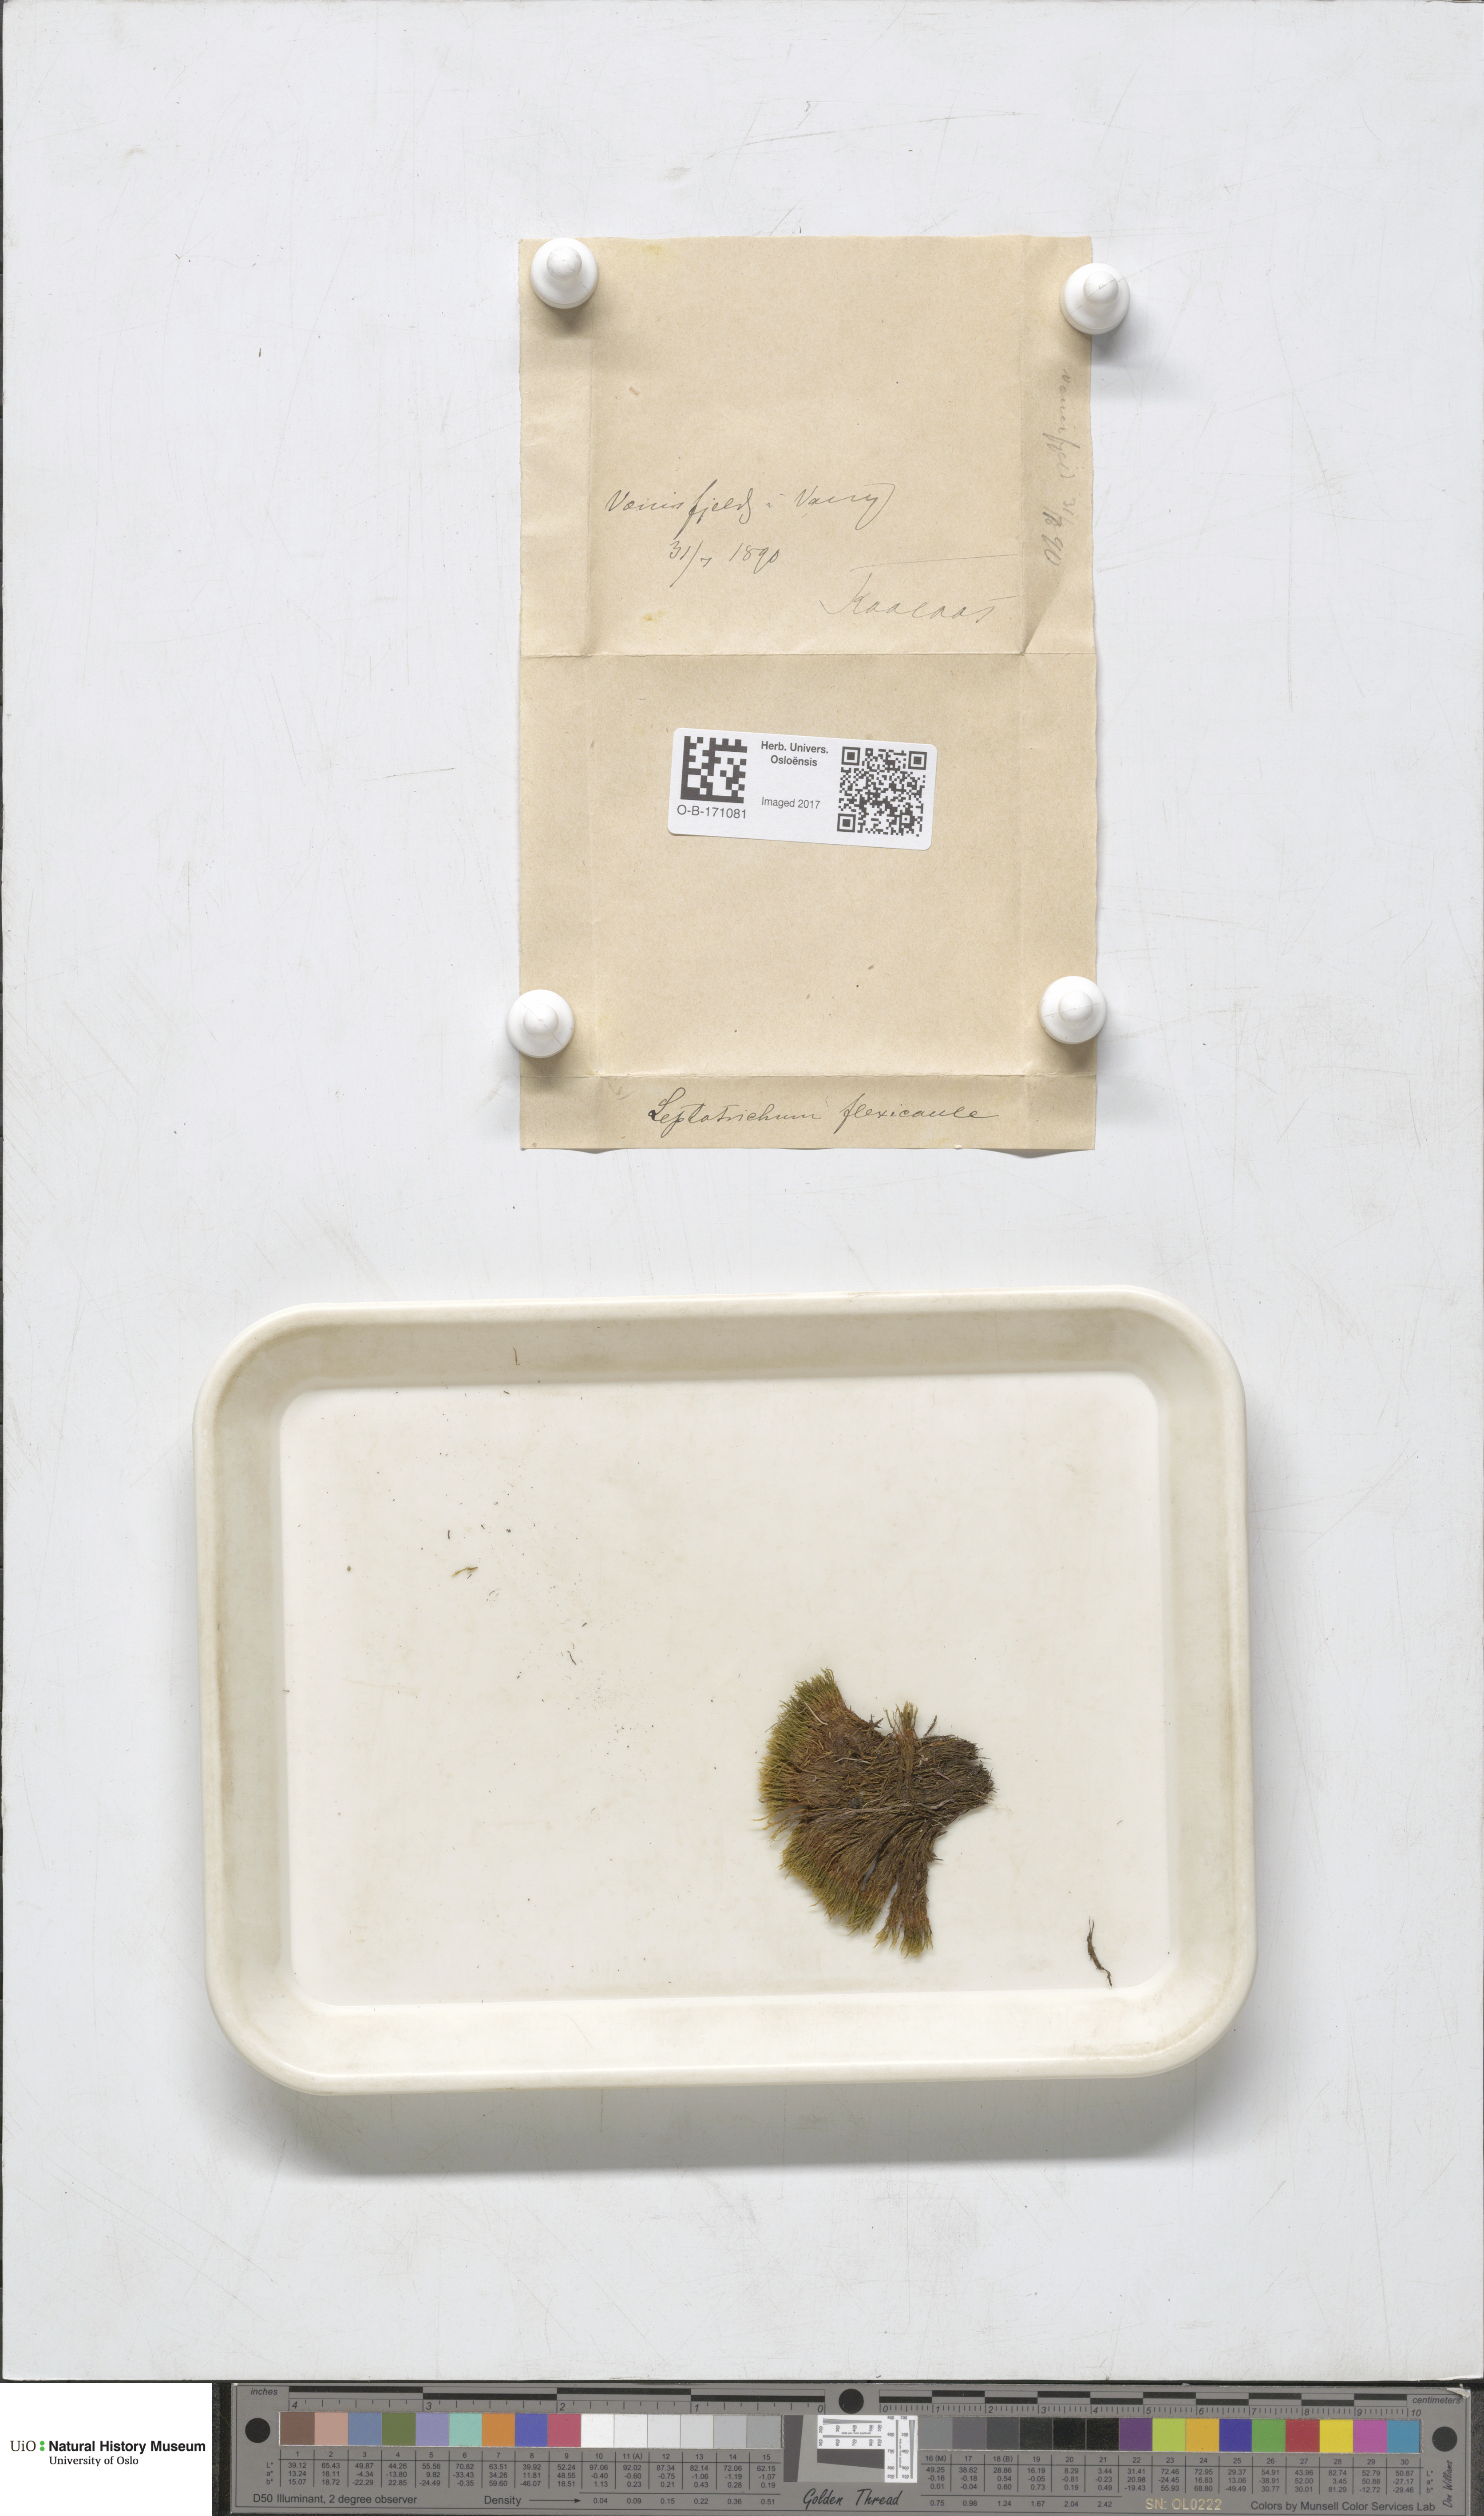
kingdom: Plantae
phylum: Bryophyta
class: Bryopsida
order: Scouleriales
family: Flexitrichaceae
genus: Flexitrichum
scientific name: Flexitrichum flexicaule
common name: Bendy ditrichum
